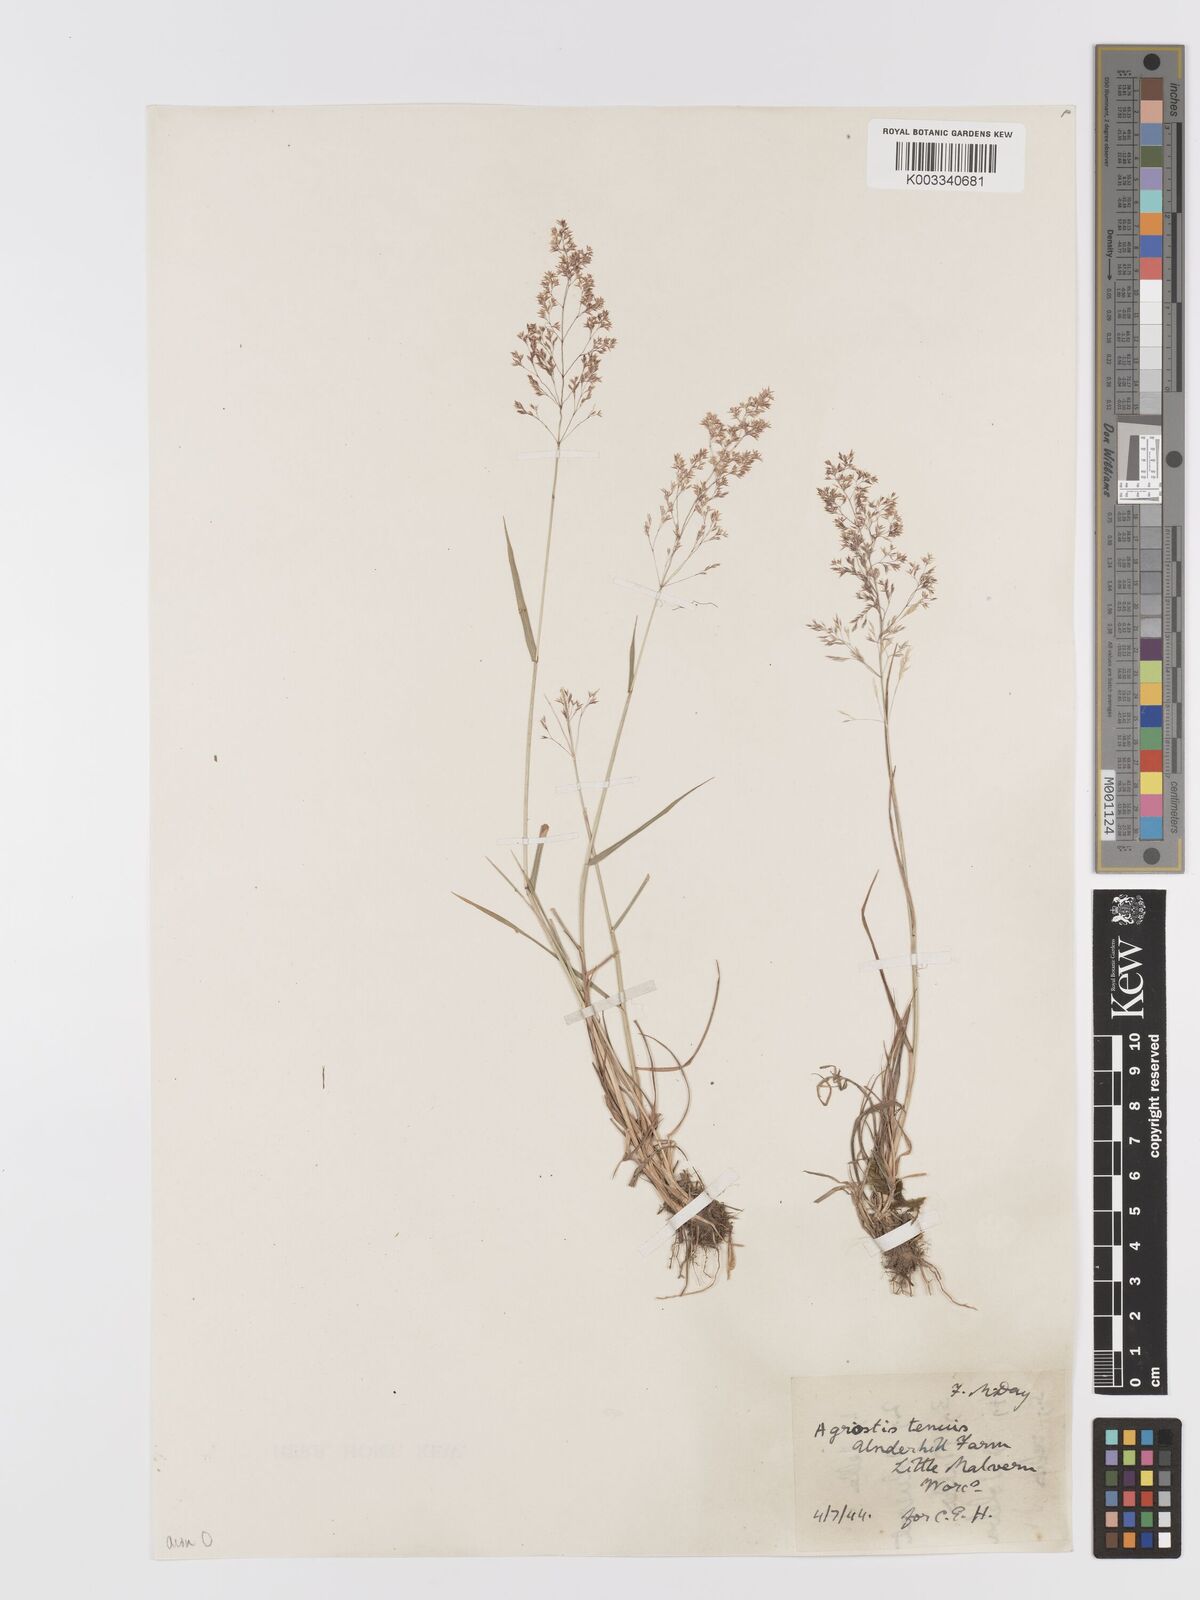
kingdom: Plantae
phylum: Tracheophyta
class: Liliopsida
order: Poales
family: Poaceae
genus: Agrostis
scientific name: Agrostis capillaris
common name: Colonial bentgrass
